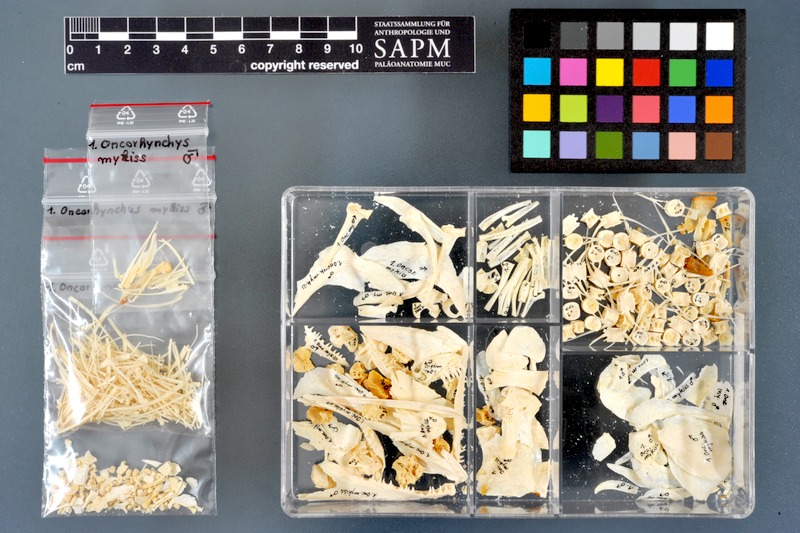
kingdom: Animalia
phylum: Chordata
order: Salmoniformes
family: Salmonidae
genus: Oncorhynchus
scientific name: Oncorhynchus mykiss
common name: Rainbow trout
